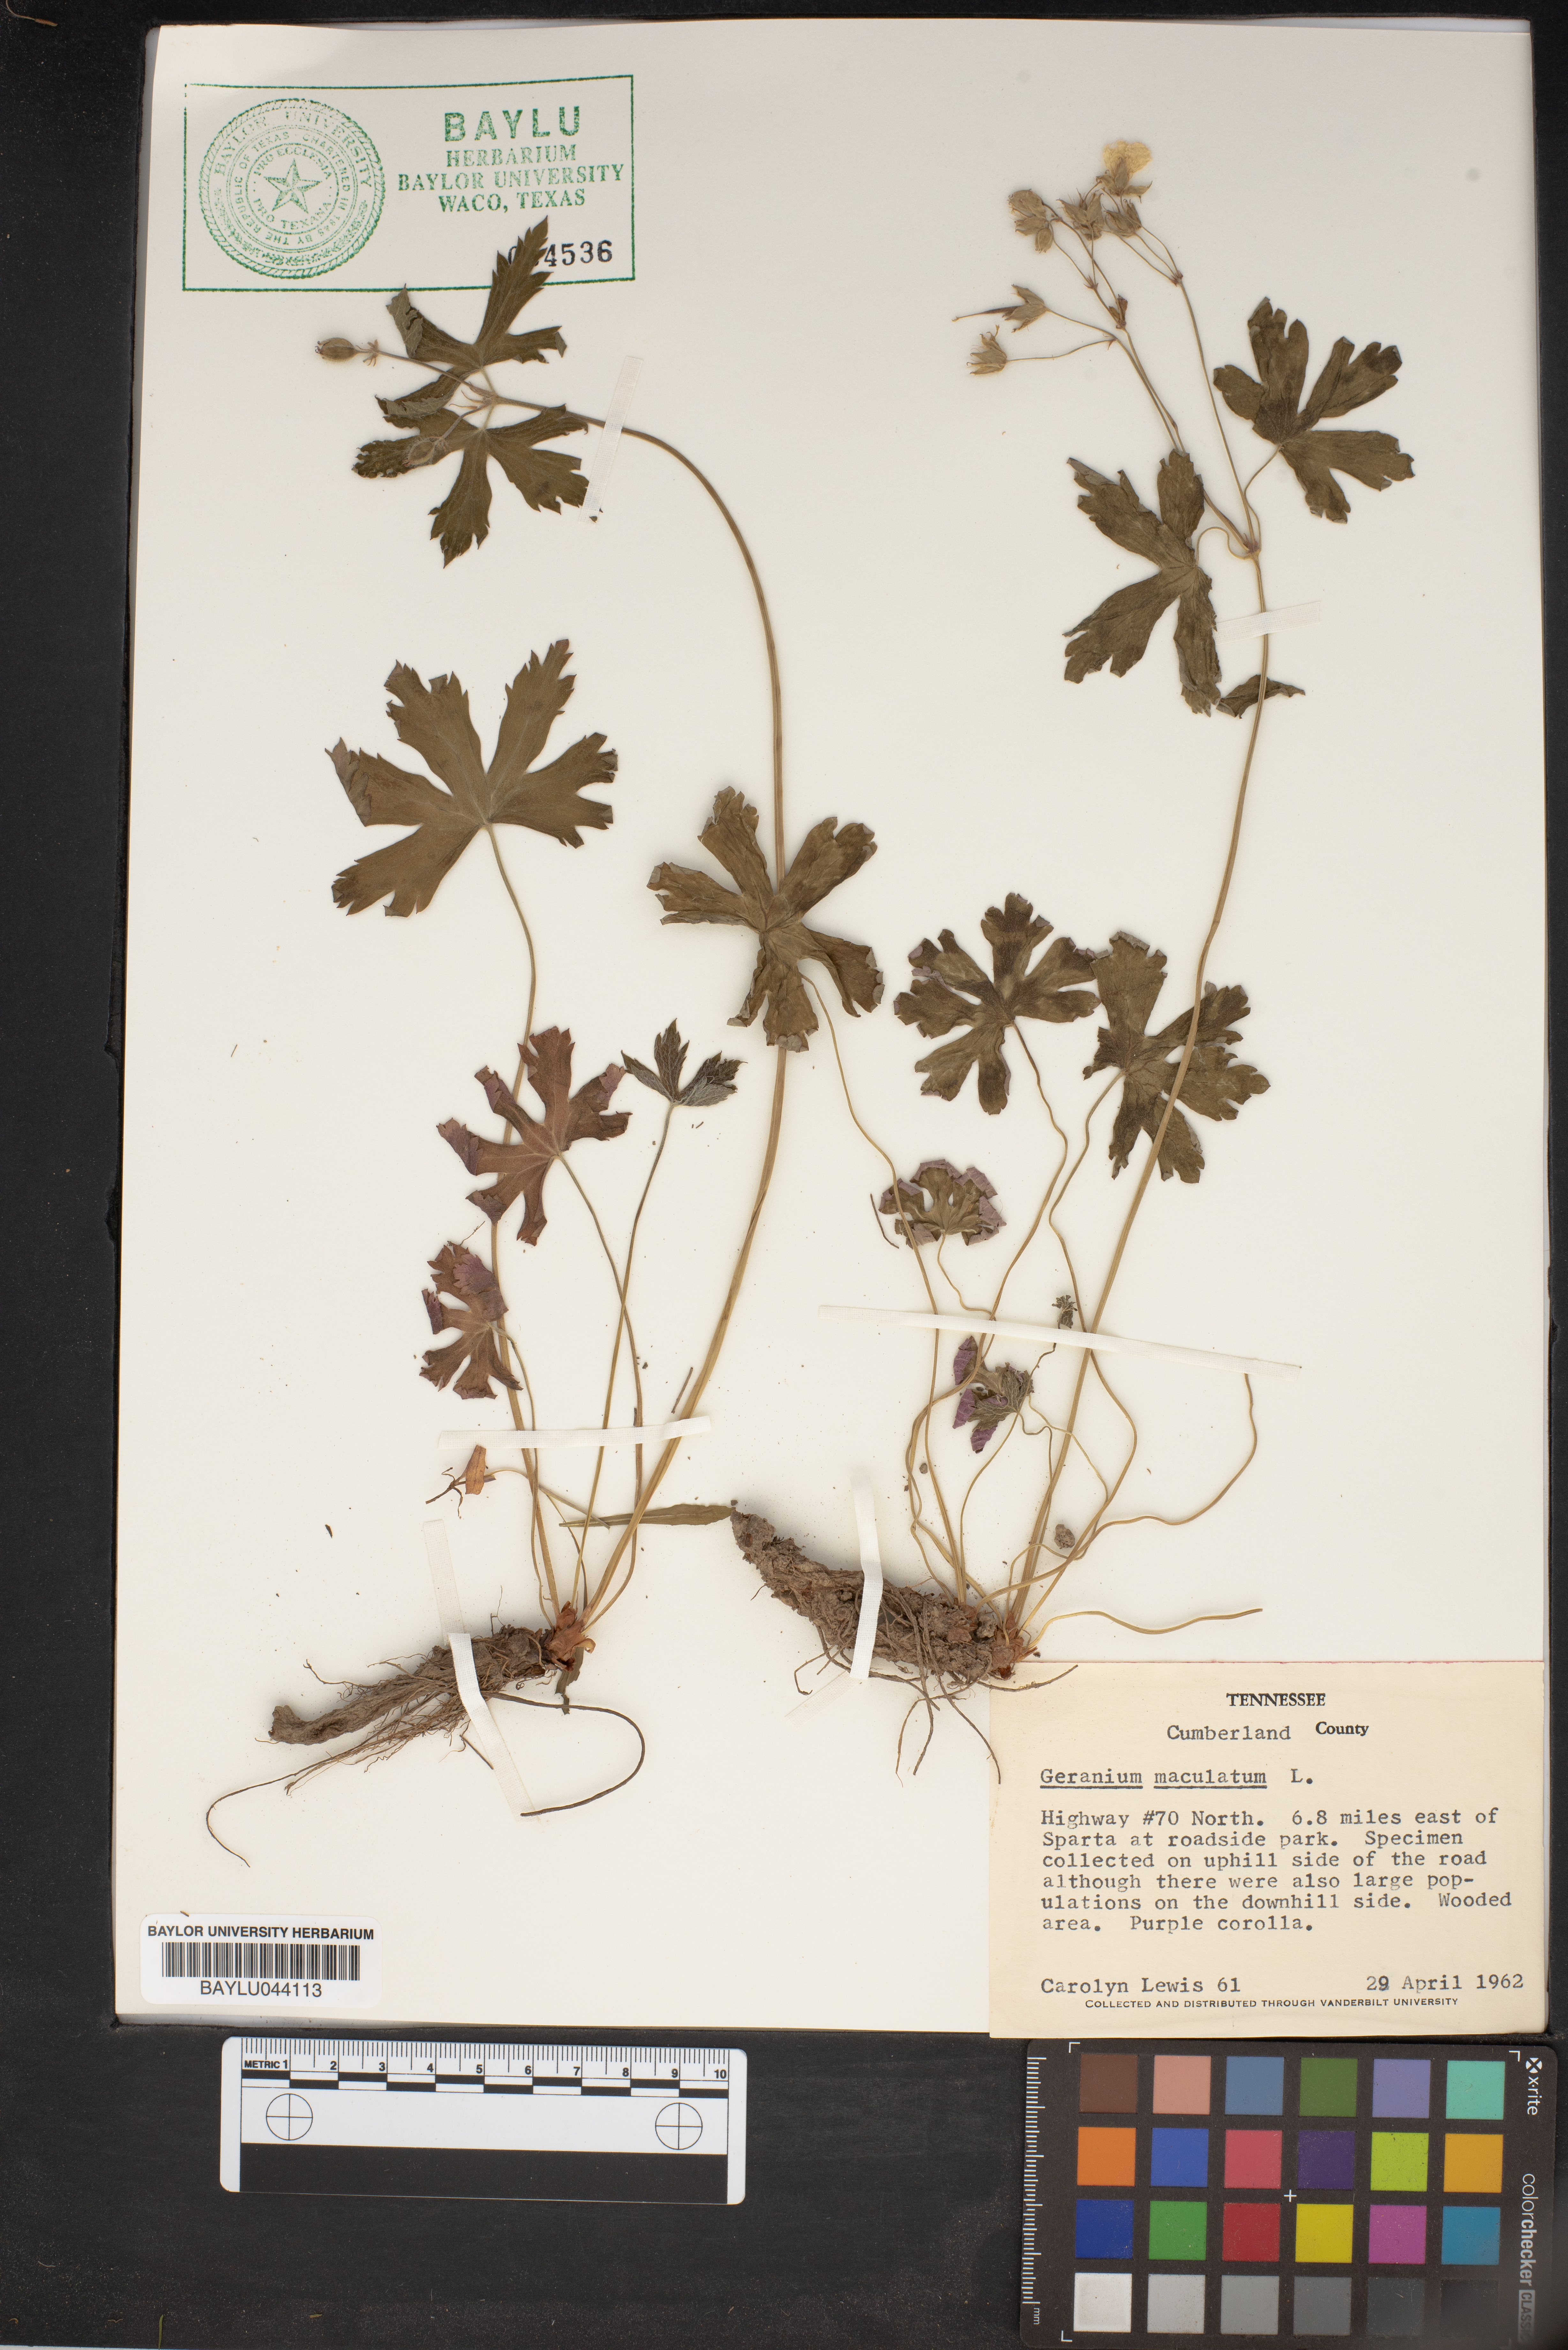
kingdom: Plantae
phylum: Tracheophyta
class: Magnoliopsida
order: Geraniales
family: Geraniaceae
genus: Geranium
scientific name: Geranium maculatum
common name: Spotted geranium
